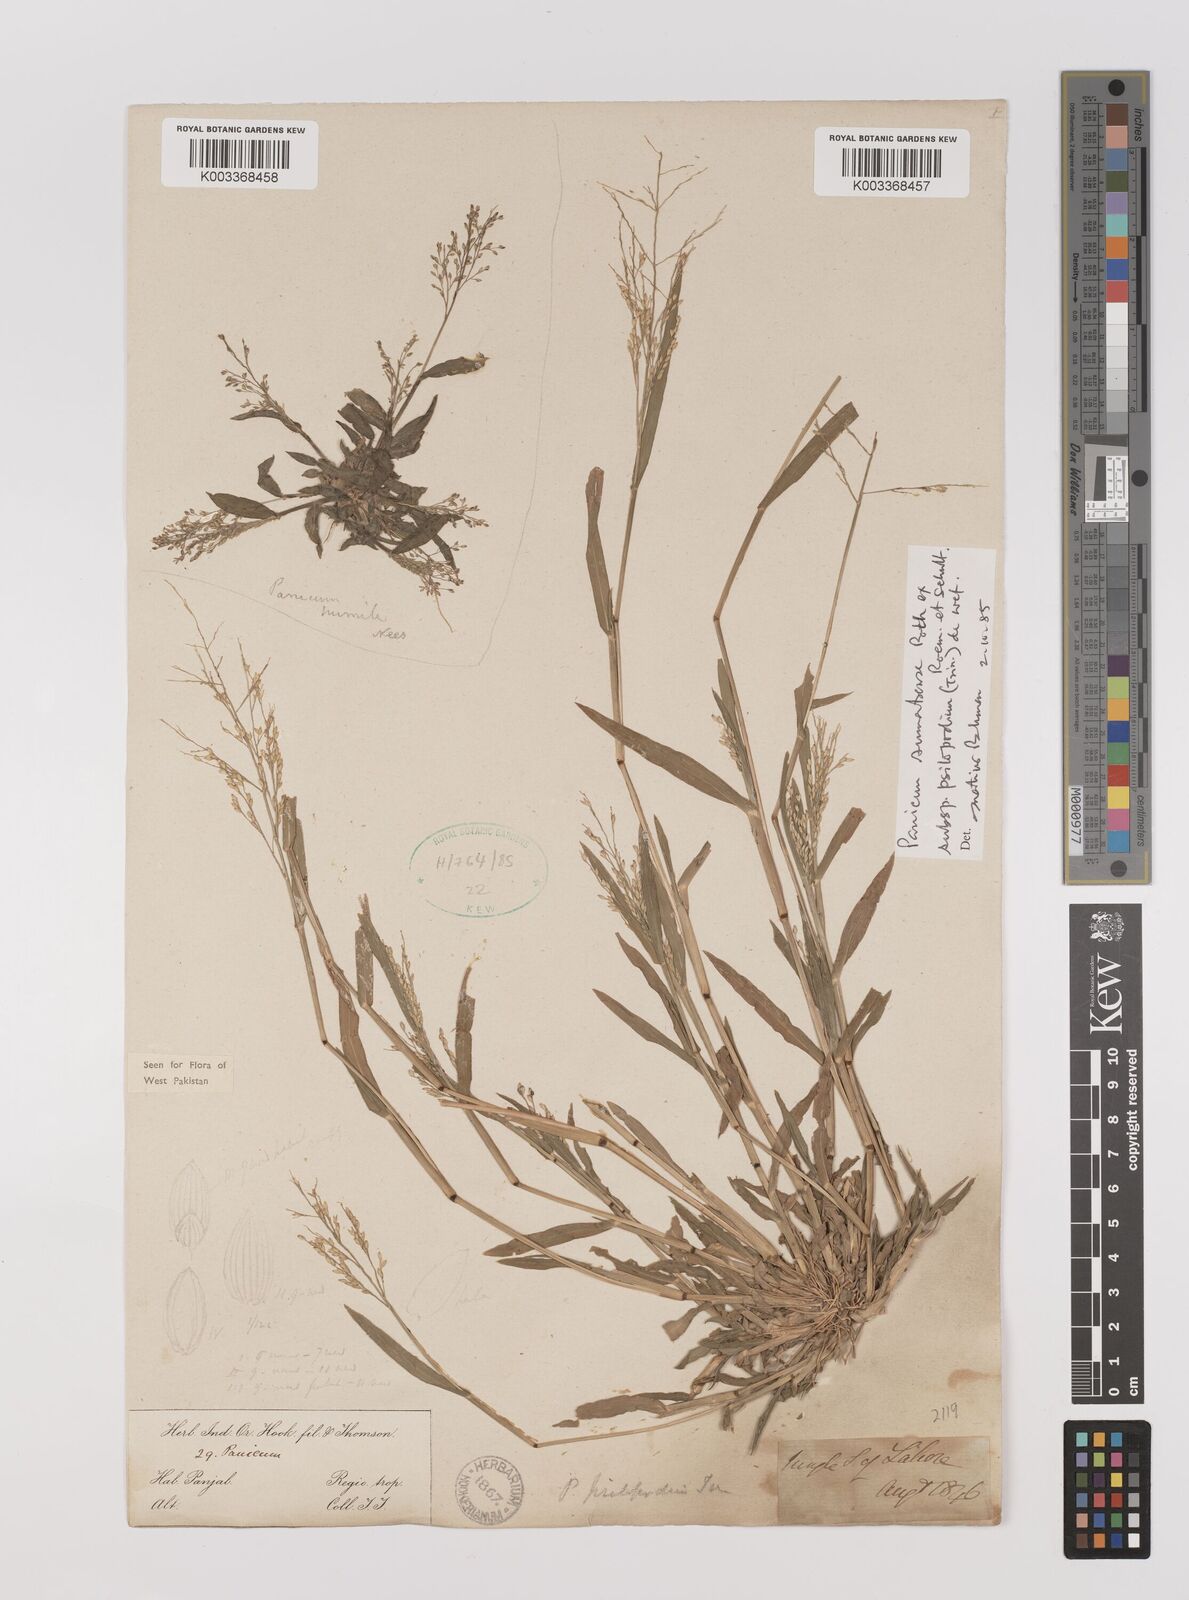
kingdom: Plantae
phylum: Tracheophyta
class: Liliopsida
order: Poales
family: Poaceae
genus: Panicum
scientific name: Panicum sumatrense
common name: Little millet
